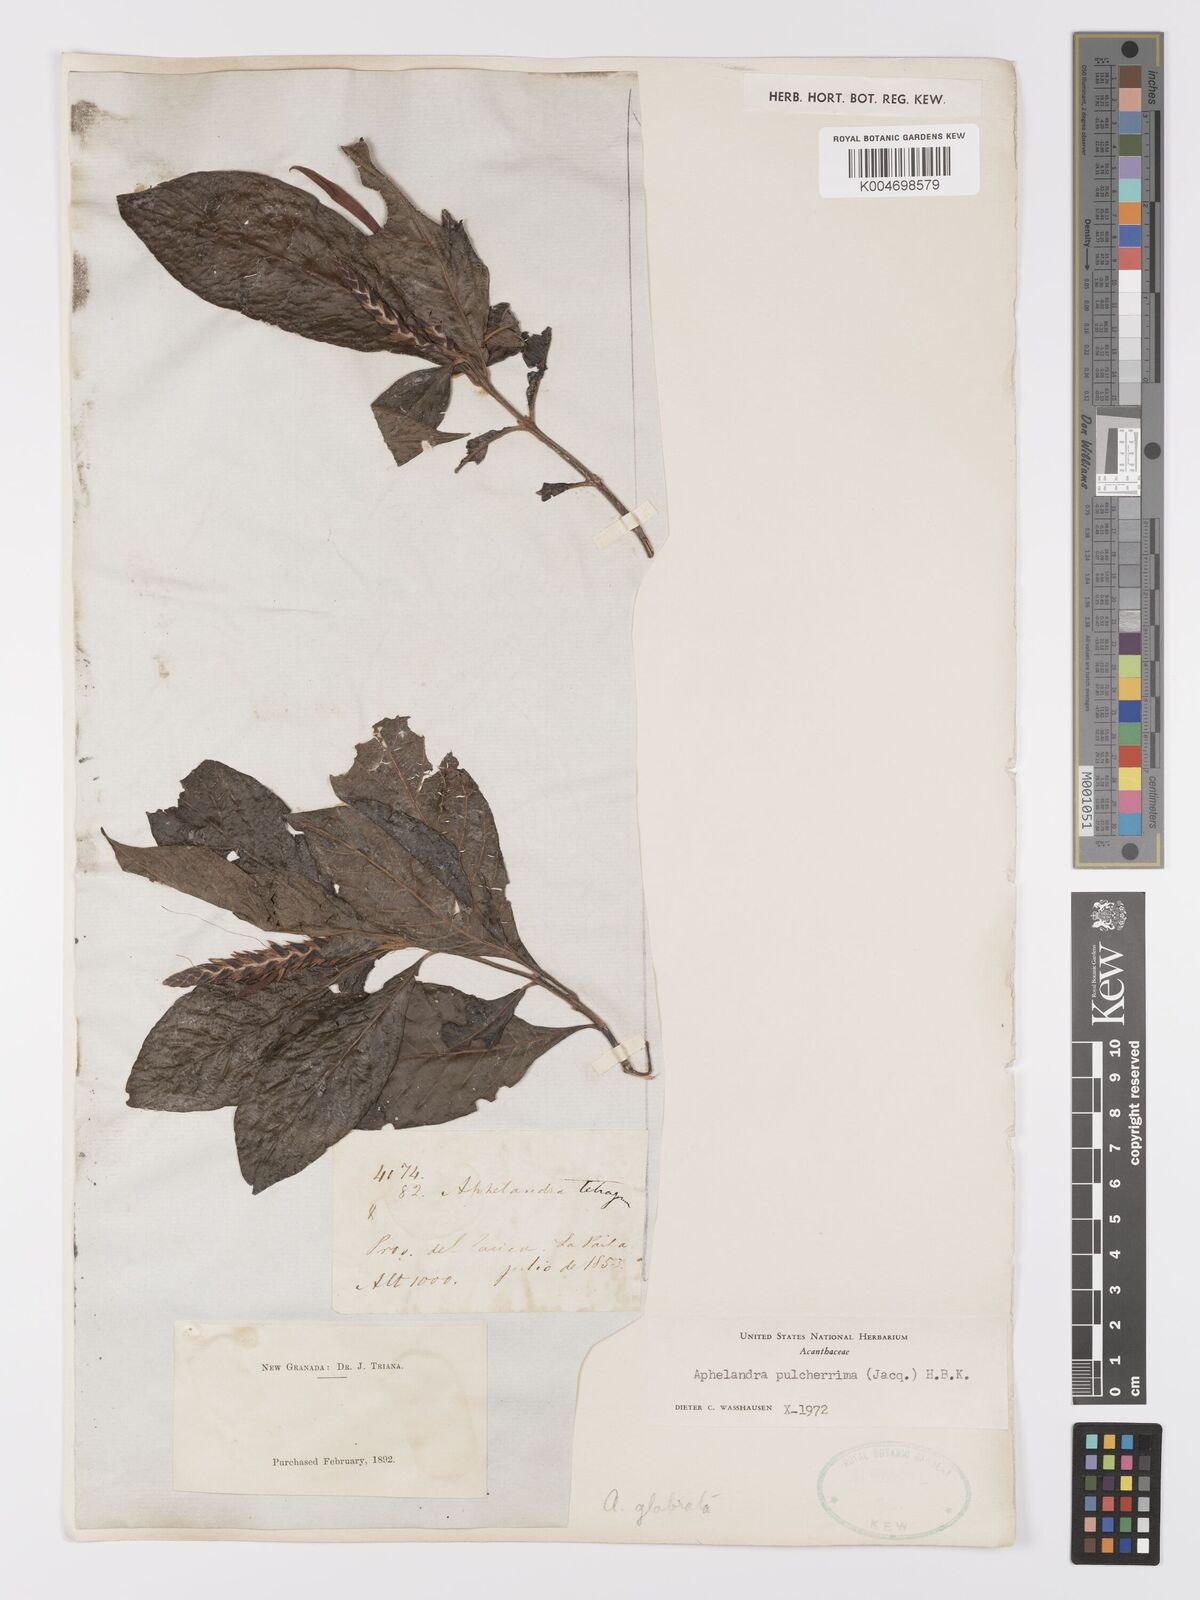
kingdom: Plantae
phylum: Tracheophyta
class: Magnoliopsida
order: Lamiales
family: Acanthaceae
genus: Aphelandra
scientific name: Aphelandra glabrata
